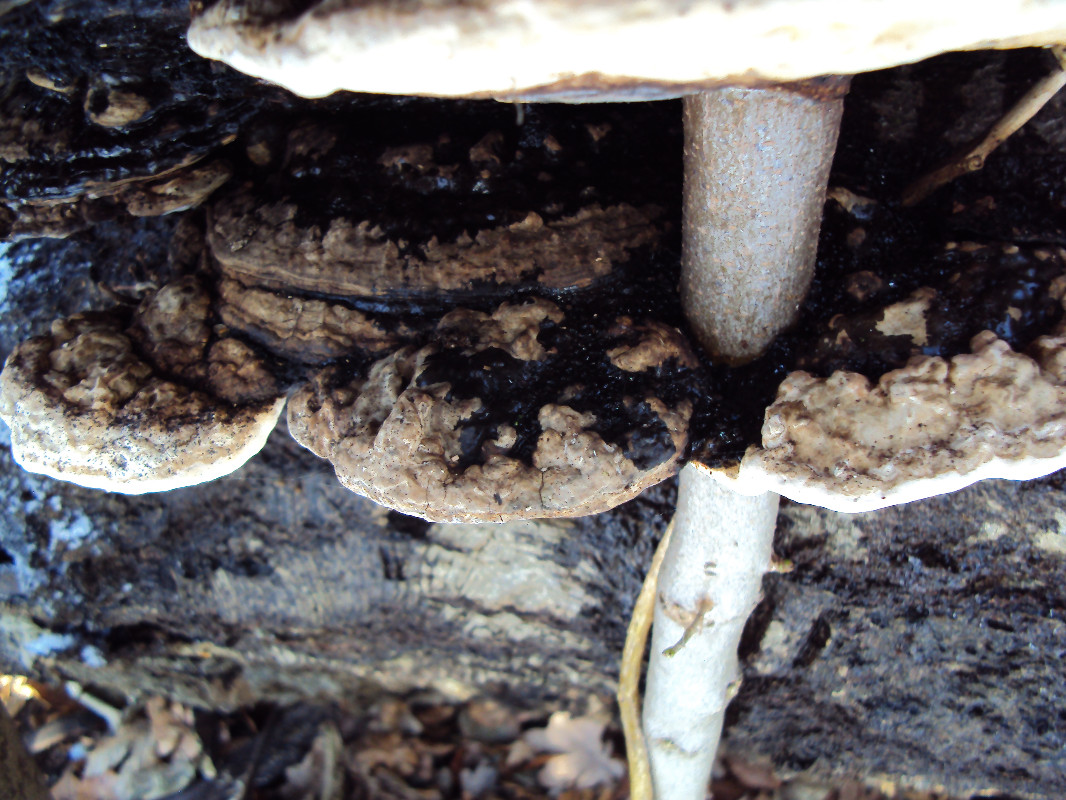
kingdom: Fungi
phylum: Basidiomycota
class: Agaricomycetes
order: Polyporales
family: Polyporaceae
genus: Ganoderma
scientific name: Ganoderma applanatum
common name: flad lakporesvamp
